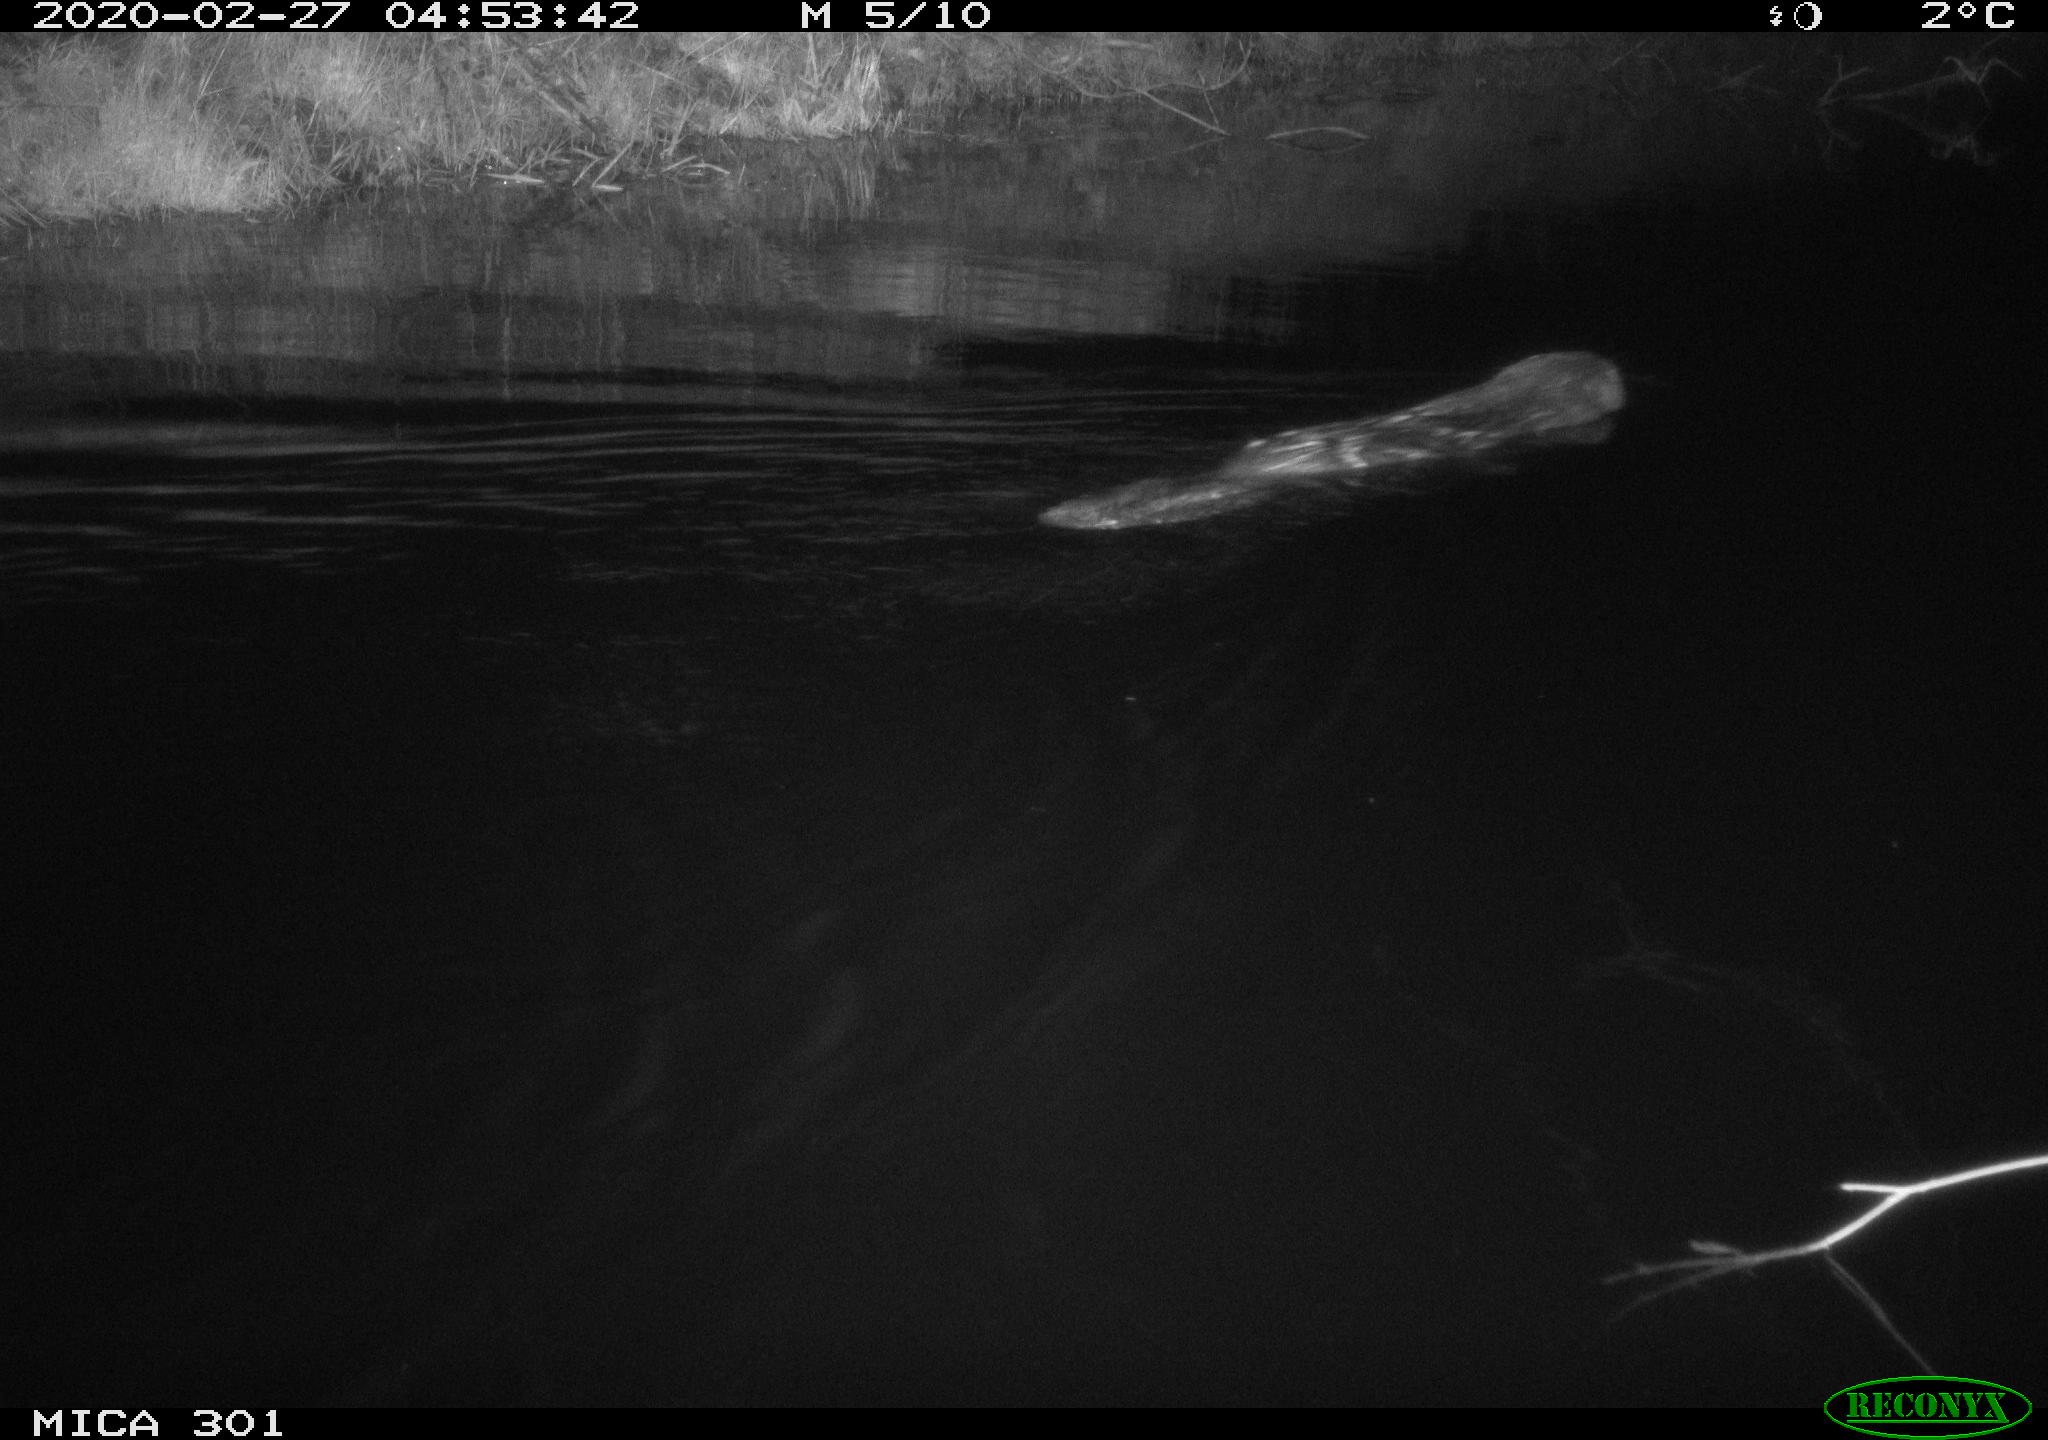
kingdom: Animalia
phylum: Chordata
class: Mammalia
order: Rodentia
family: Castoridae
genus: Castor
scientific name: Castor fiber
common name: Eurasian beaver
